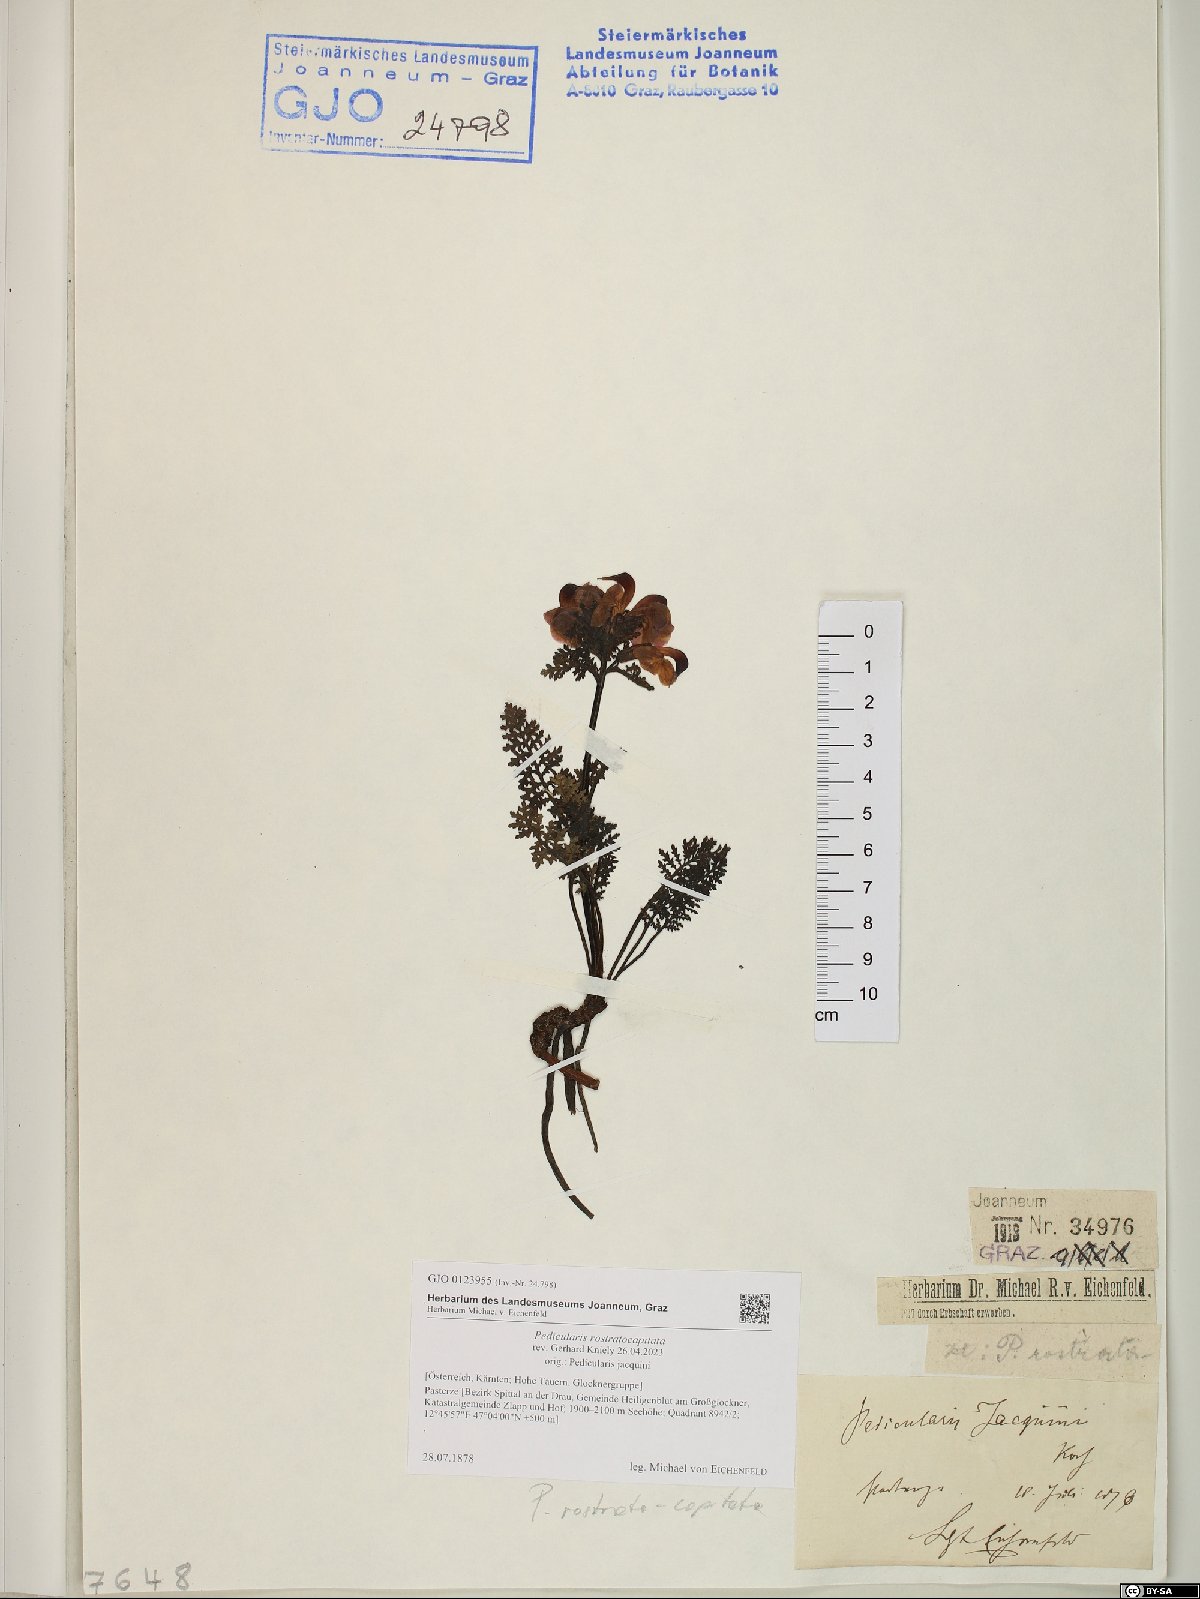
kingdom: Plantae
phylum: Tracheophyta
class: Magnoliopsida
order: Lamiales
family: Orobanchaceae
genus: Pedicularis
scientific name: Pedicularis rostratocapitata
